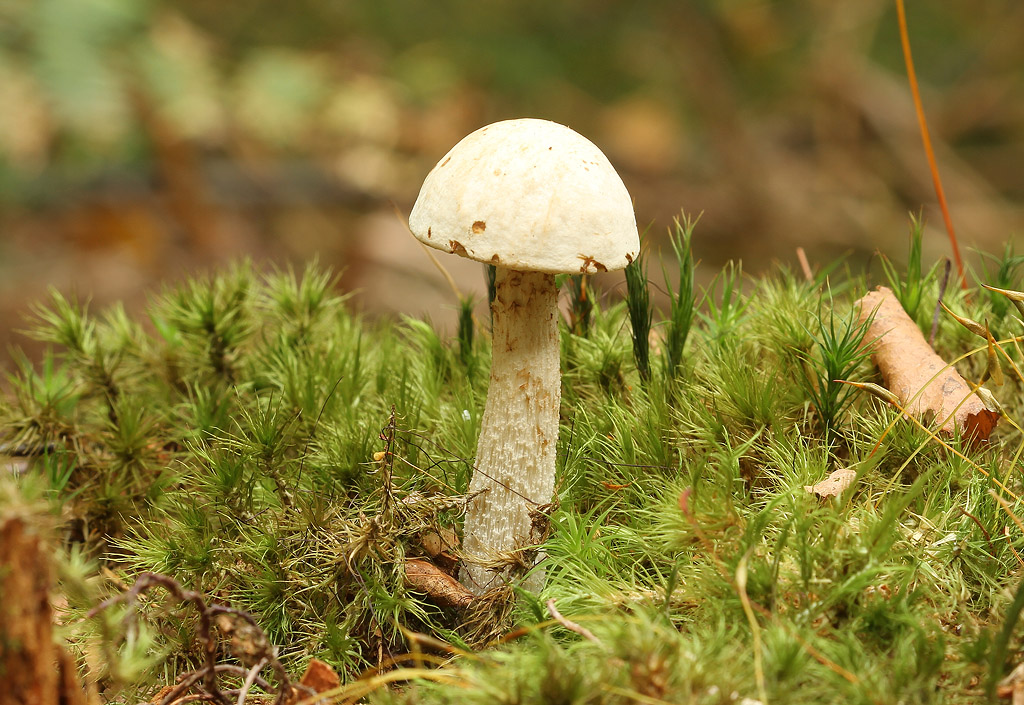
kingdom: Fungi
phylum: Basidiomycota
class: Agaricomycetes
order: Boletales
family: Boletaceae
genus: Leccinum
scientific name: Leccinum scabrum
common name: hvid skælrørhat
